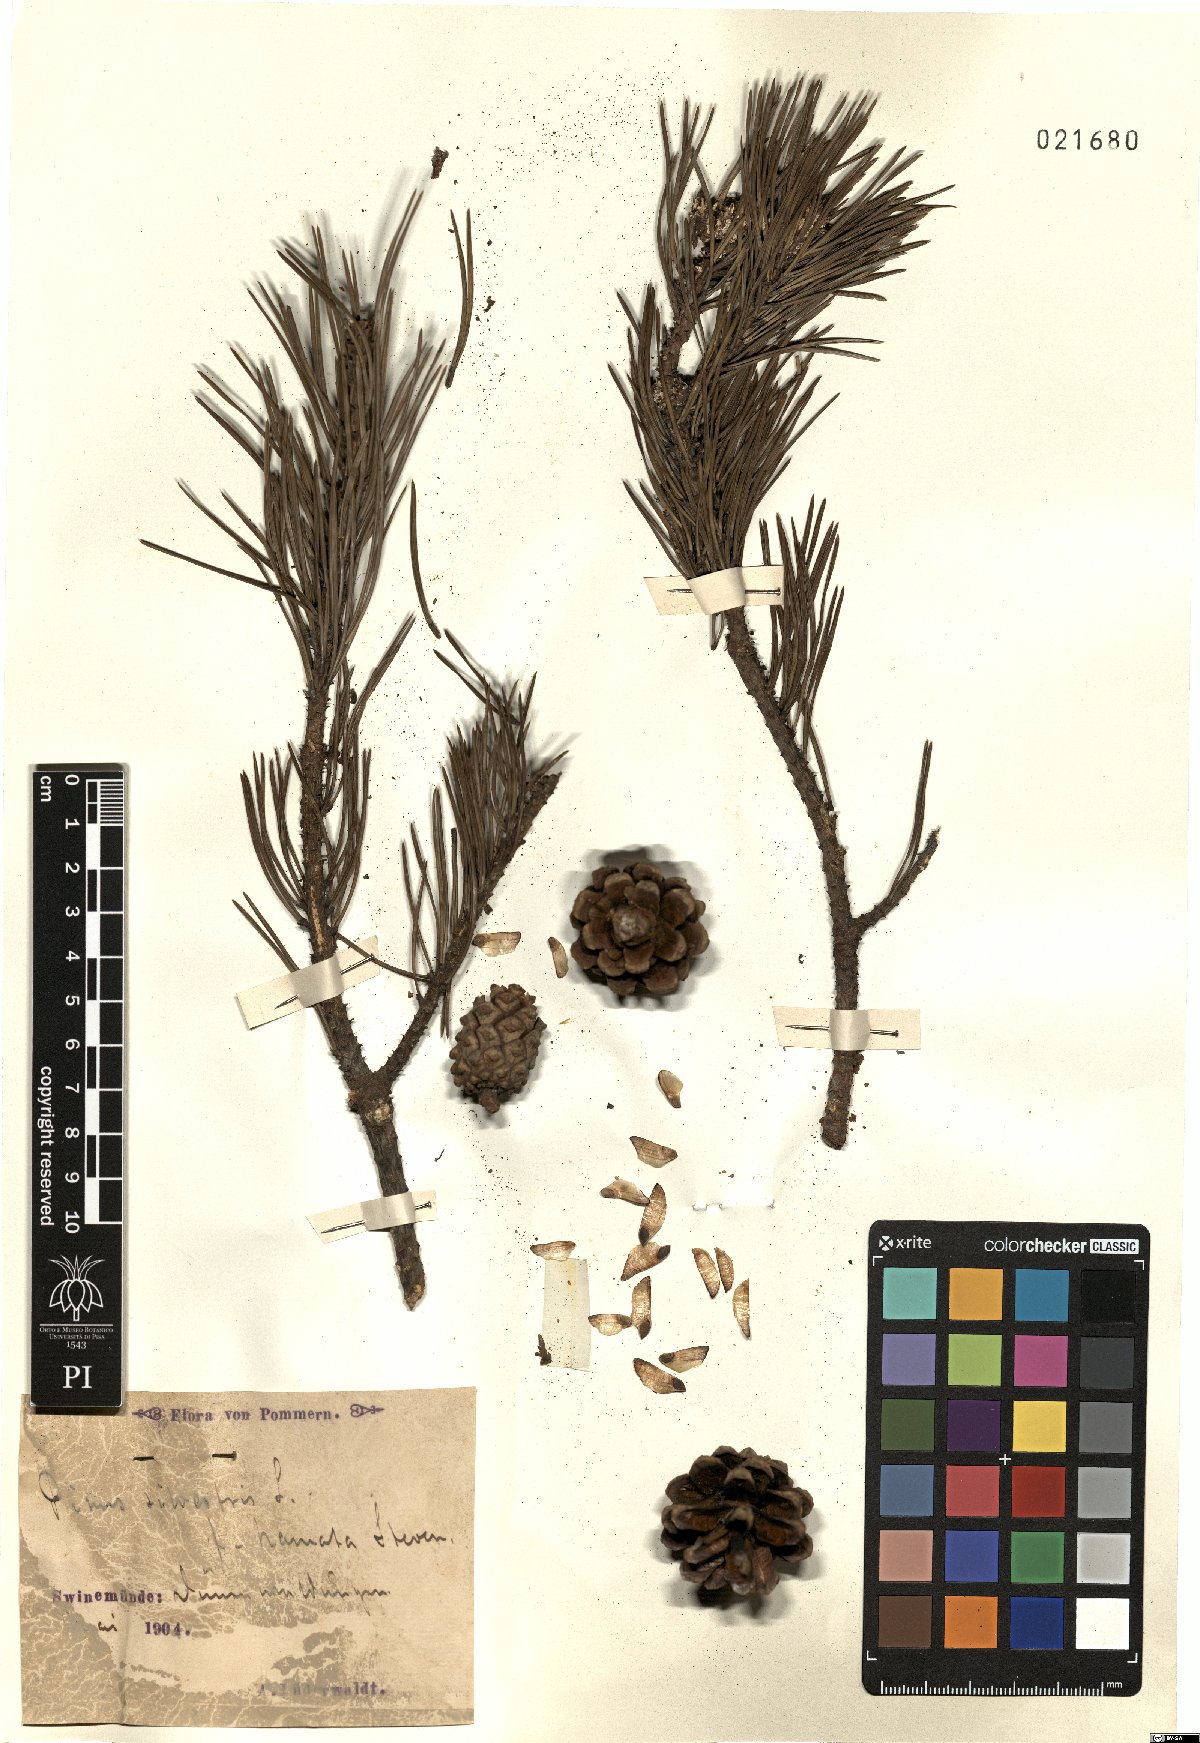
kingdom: Plantae
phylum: Tracheophyta
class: Pinopsida
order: Pinales
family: Pinaceae
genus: Pinus
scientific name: Pinus sylvestris
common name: Scots pine
